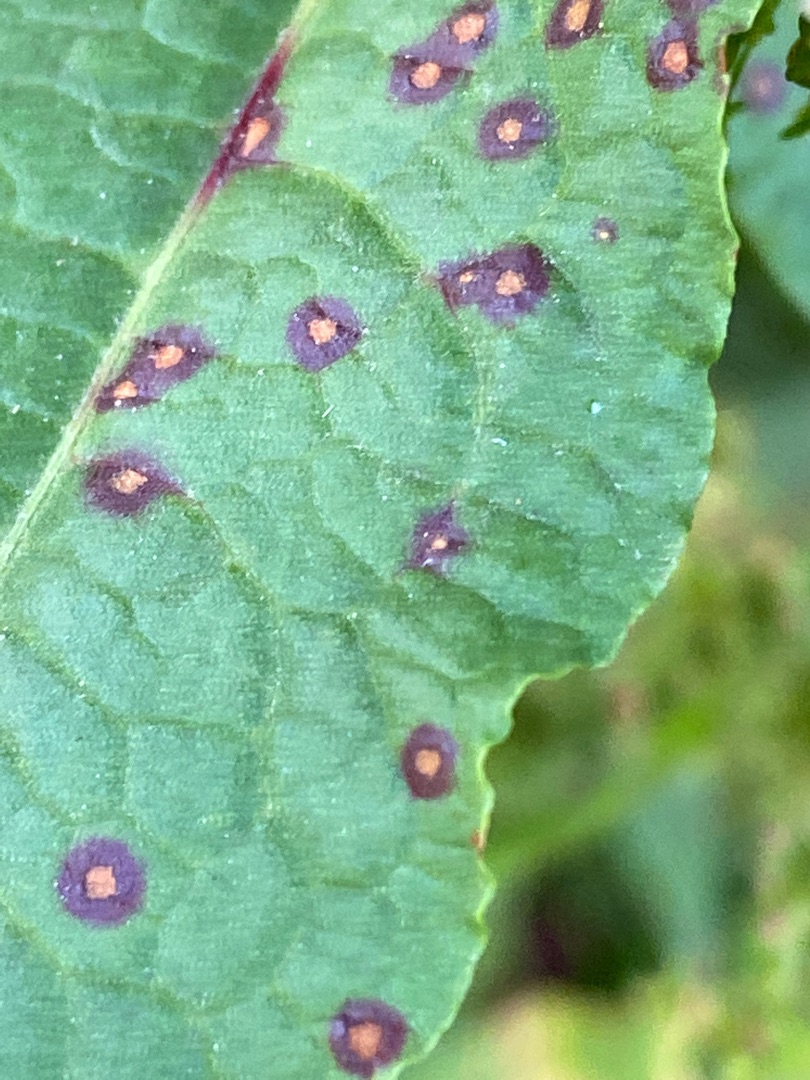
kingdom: Plantae
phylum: Tracheophyta
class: Magnoliopsida
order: Caryophyllales
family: Polygonaceae
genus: Rumex
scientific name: Rumex obtusifolius
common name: Butbladet skræppe
